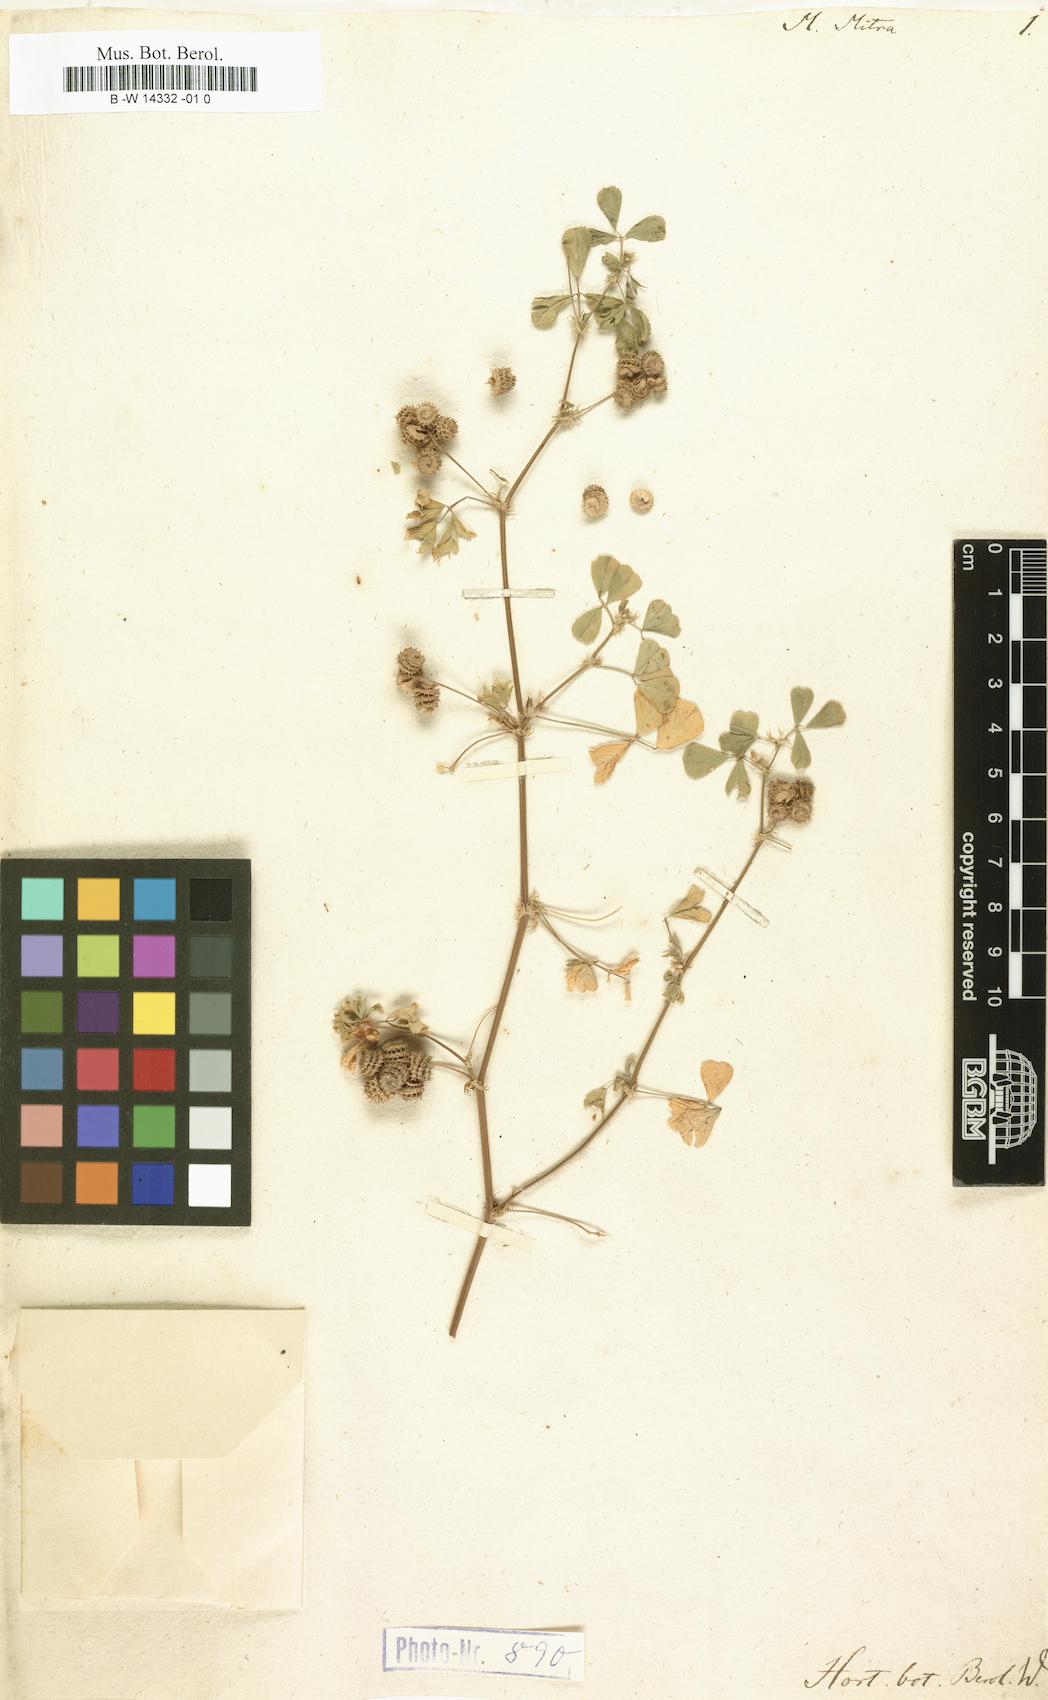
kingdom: Plantae
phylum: Tracheophyta
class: Magnoliopsida
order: Fabales
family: Fabaceae
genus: Medicago
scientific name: Medicago rigidula
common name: Tifton medic
